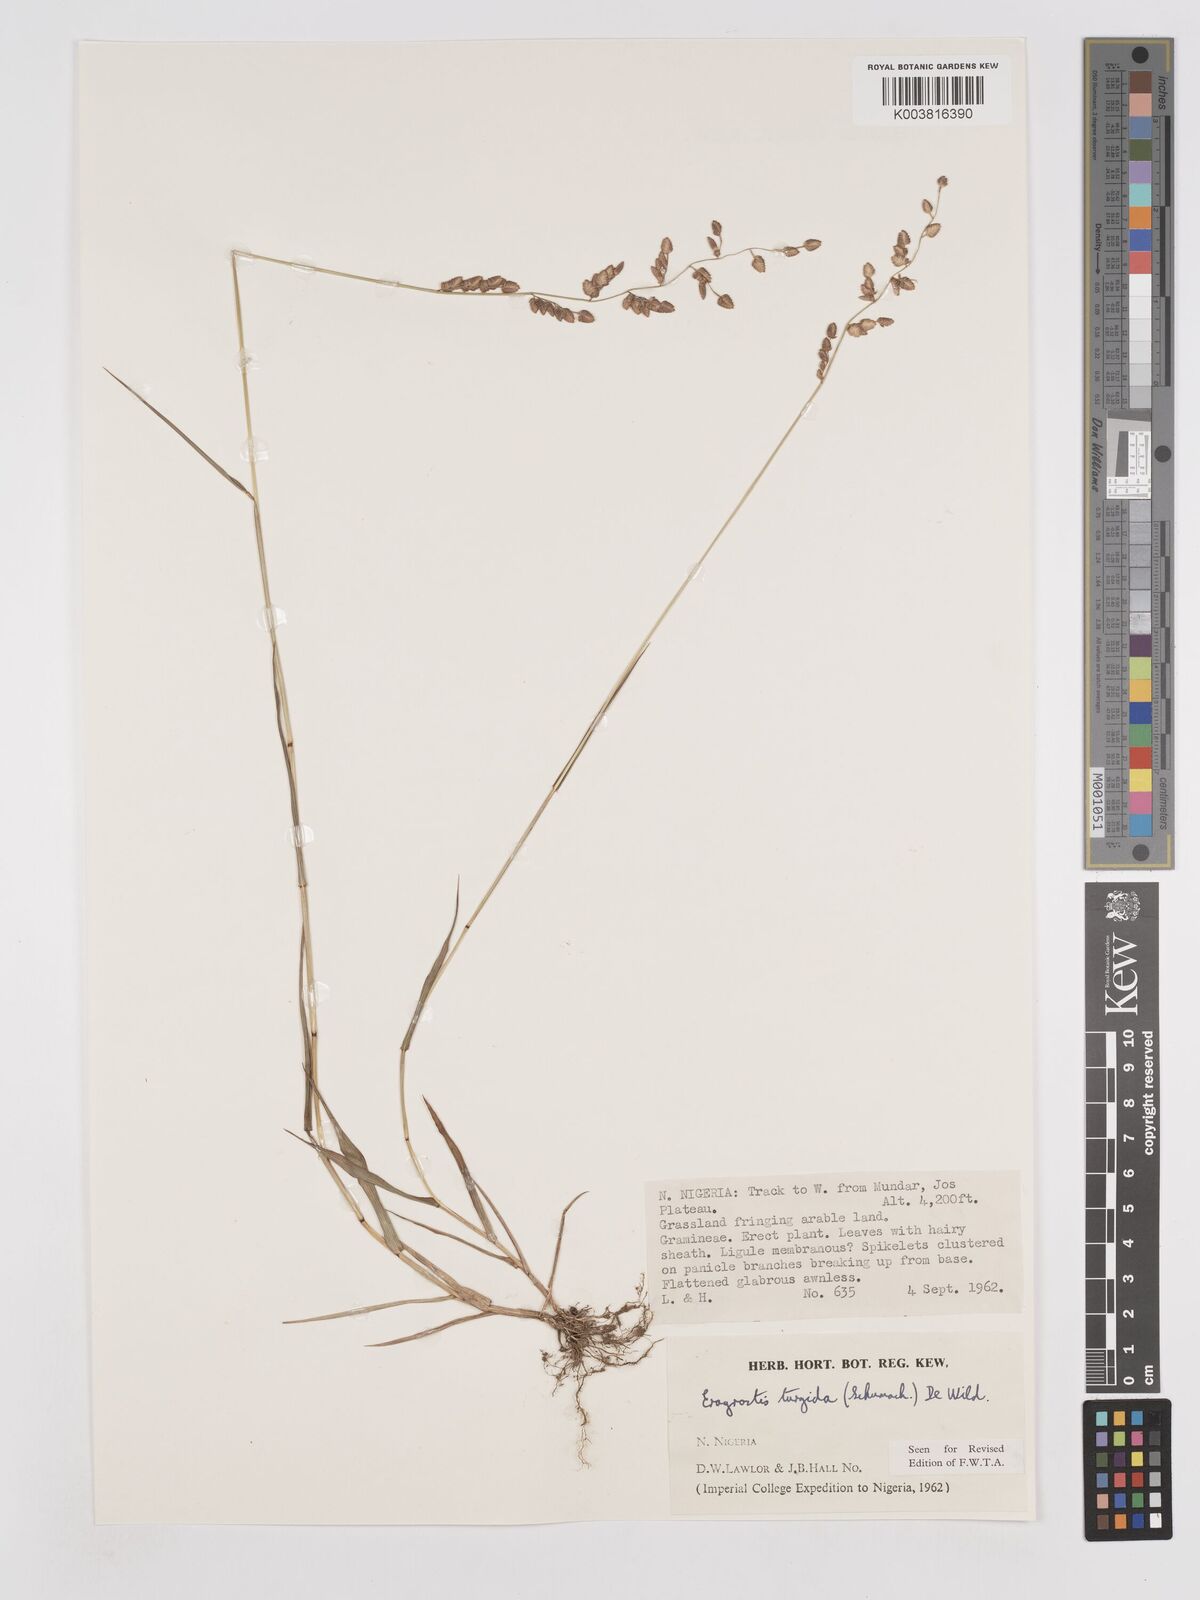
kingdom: Plantae
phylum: Tracheophyta
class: Liliopsida
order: Poales
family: Poaceae
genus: Eragrostis
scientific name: Eragrostis turgida
